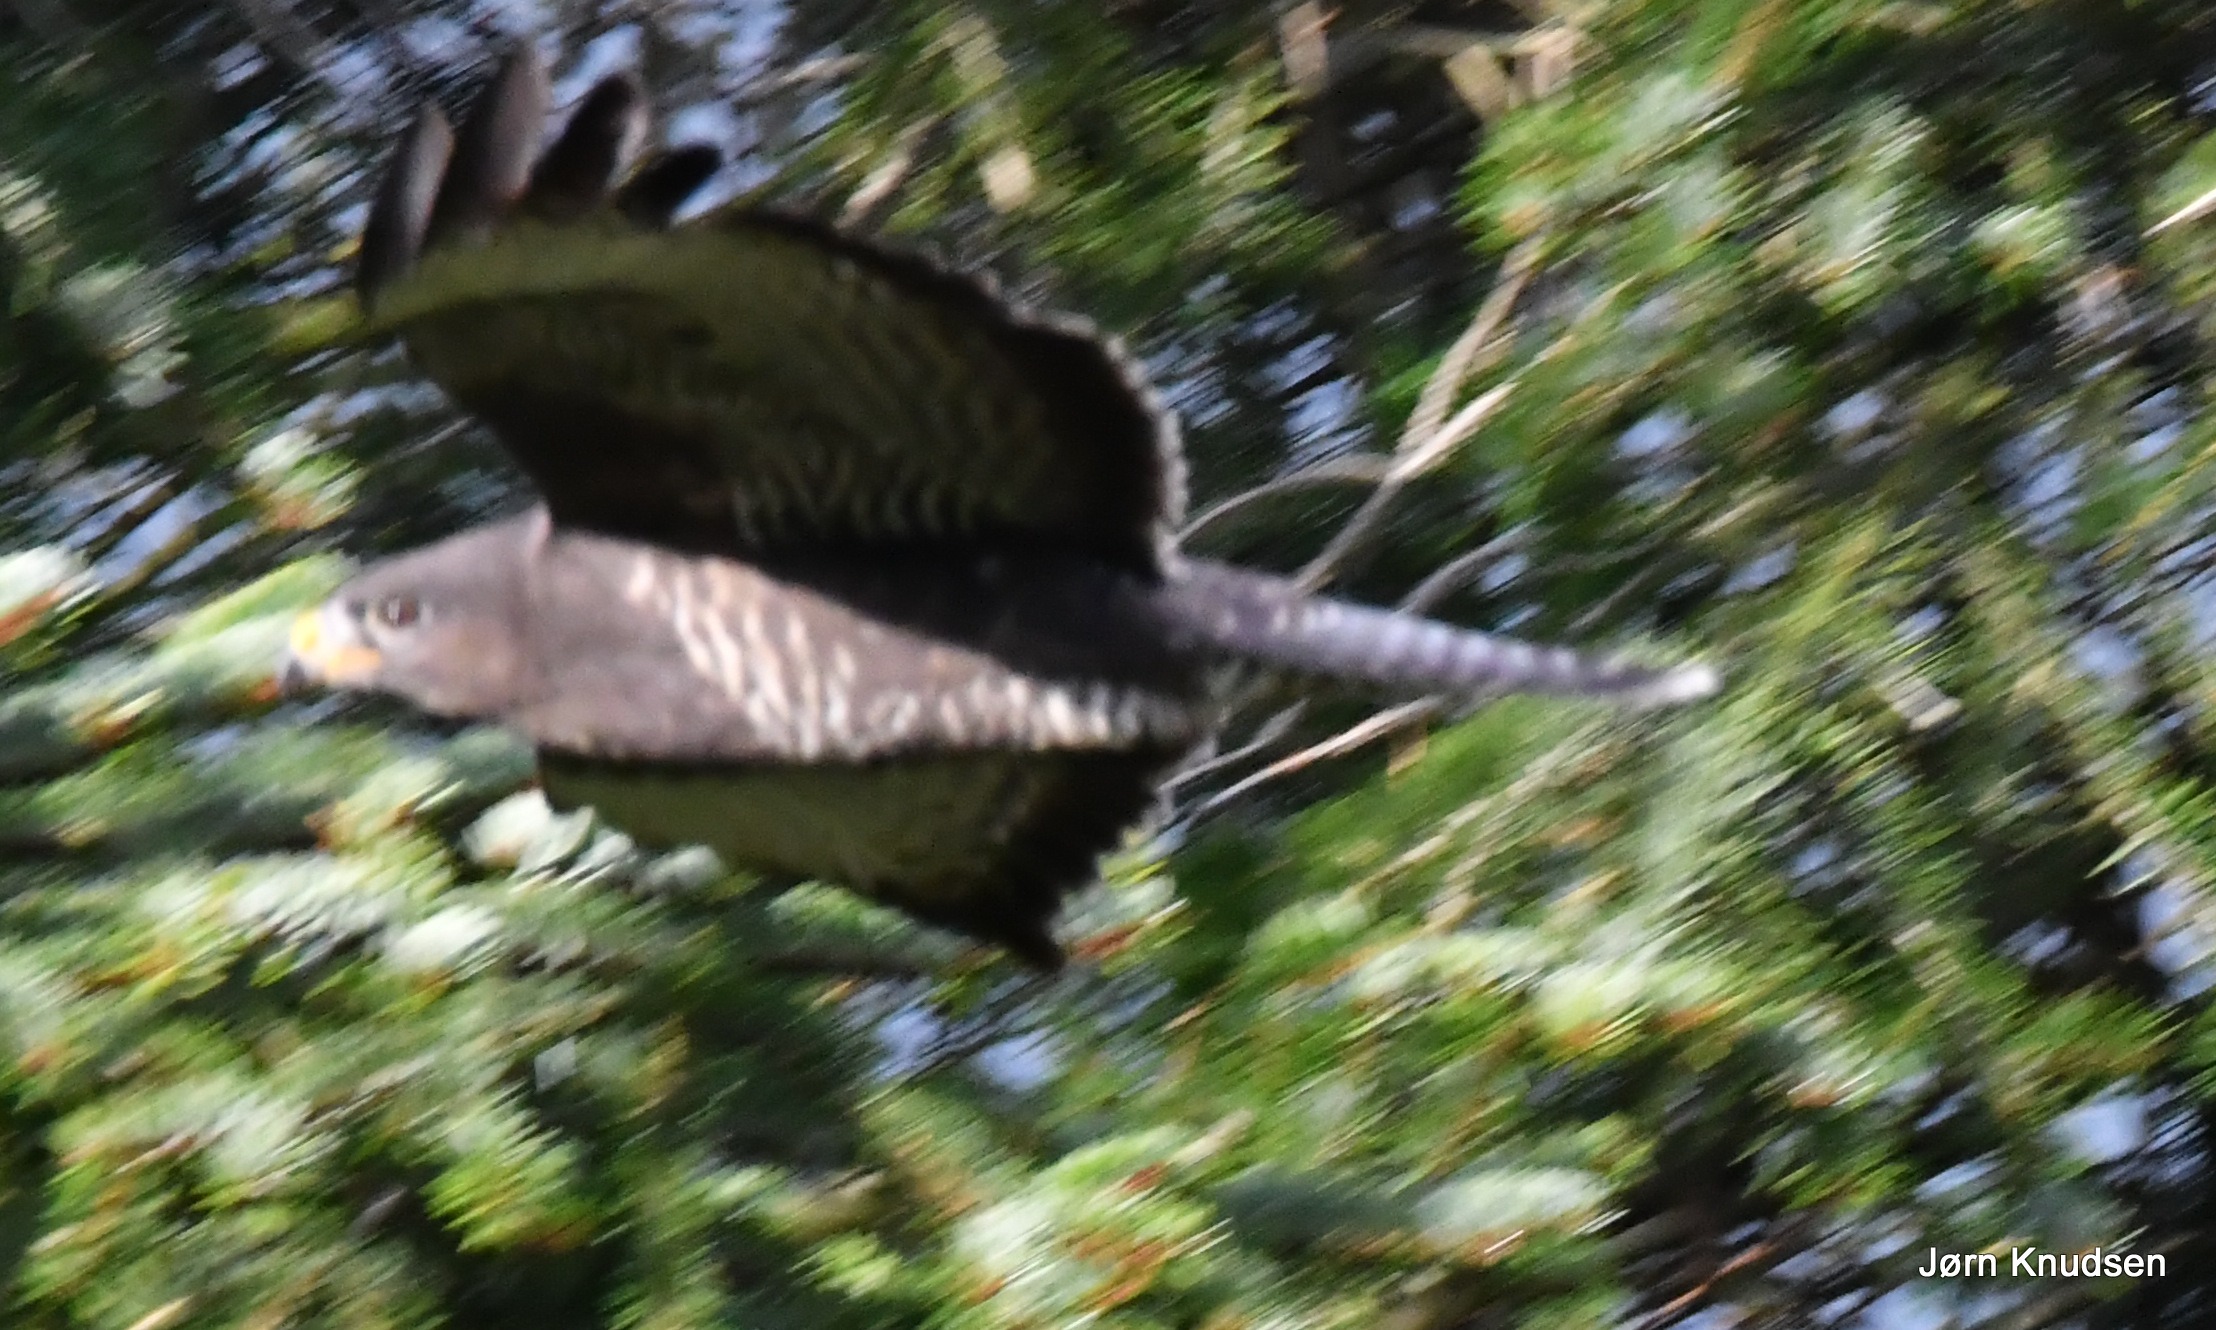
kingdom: Animalia
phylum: Chordata
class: Aves
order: Accipitriformes
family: Accipitridae
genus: Buteo
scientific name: Buteo buteo
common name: Musvåge
